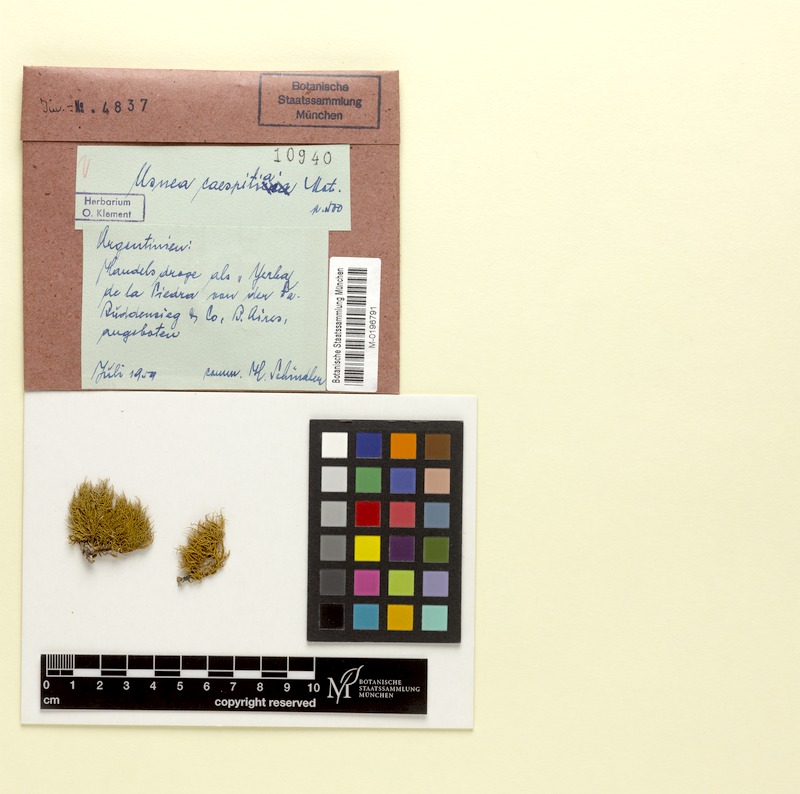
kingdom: Fungi
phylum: Ascomycota
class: Lecanoromycetes
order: Lecanorales
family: Parmeliaceae
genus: Usnea
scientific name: Usnea caespitia
